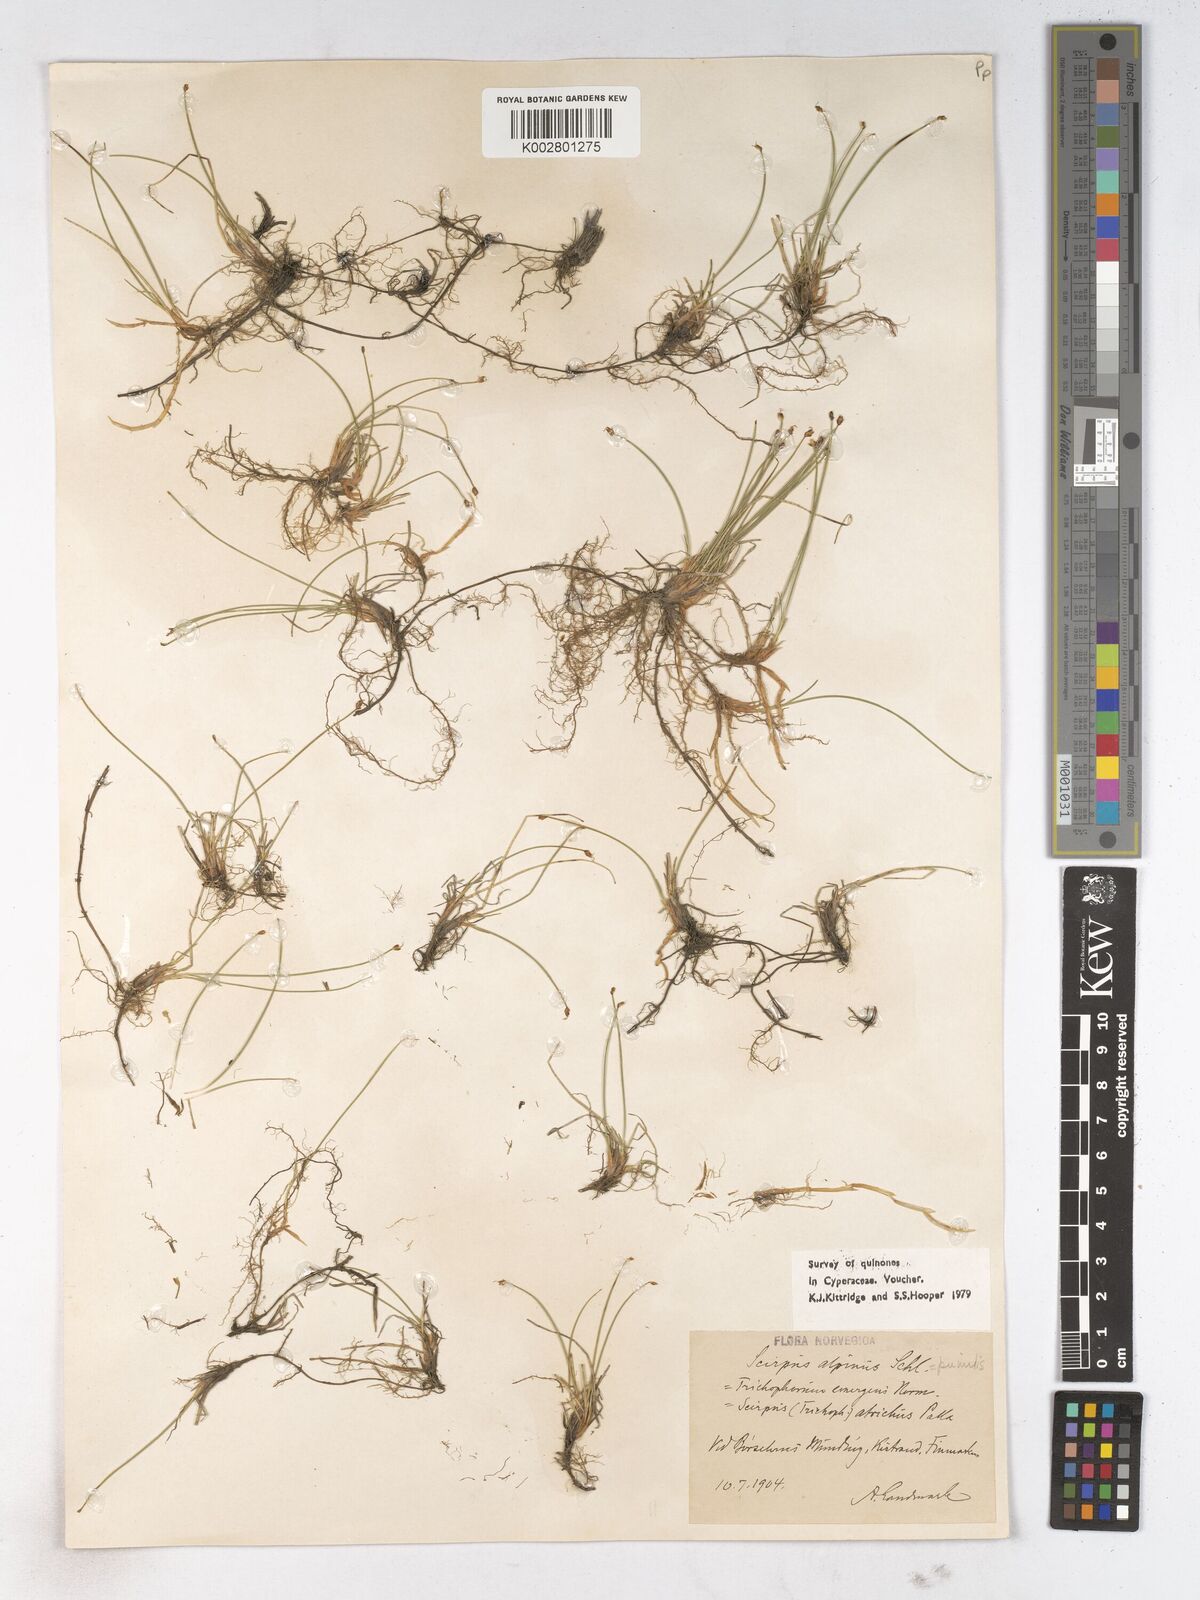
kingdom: Plantae
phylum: Tracheophyta
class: Liliopsida
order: Poales
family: Cyperaceae
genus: Trichophorum
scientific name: Trichophorum pumilum
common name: Rolland's bulrush
